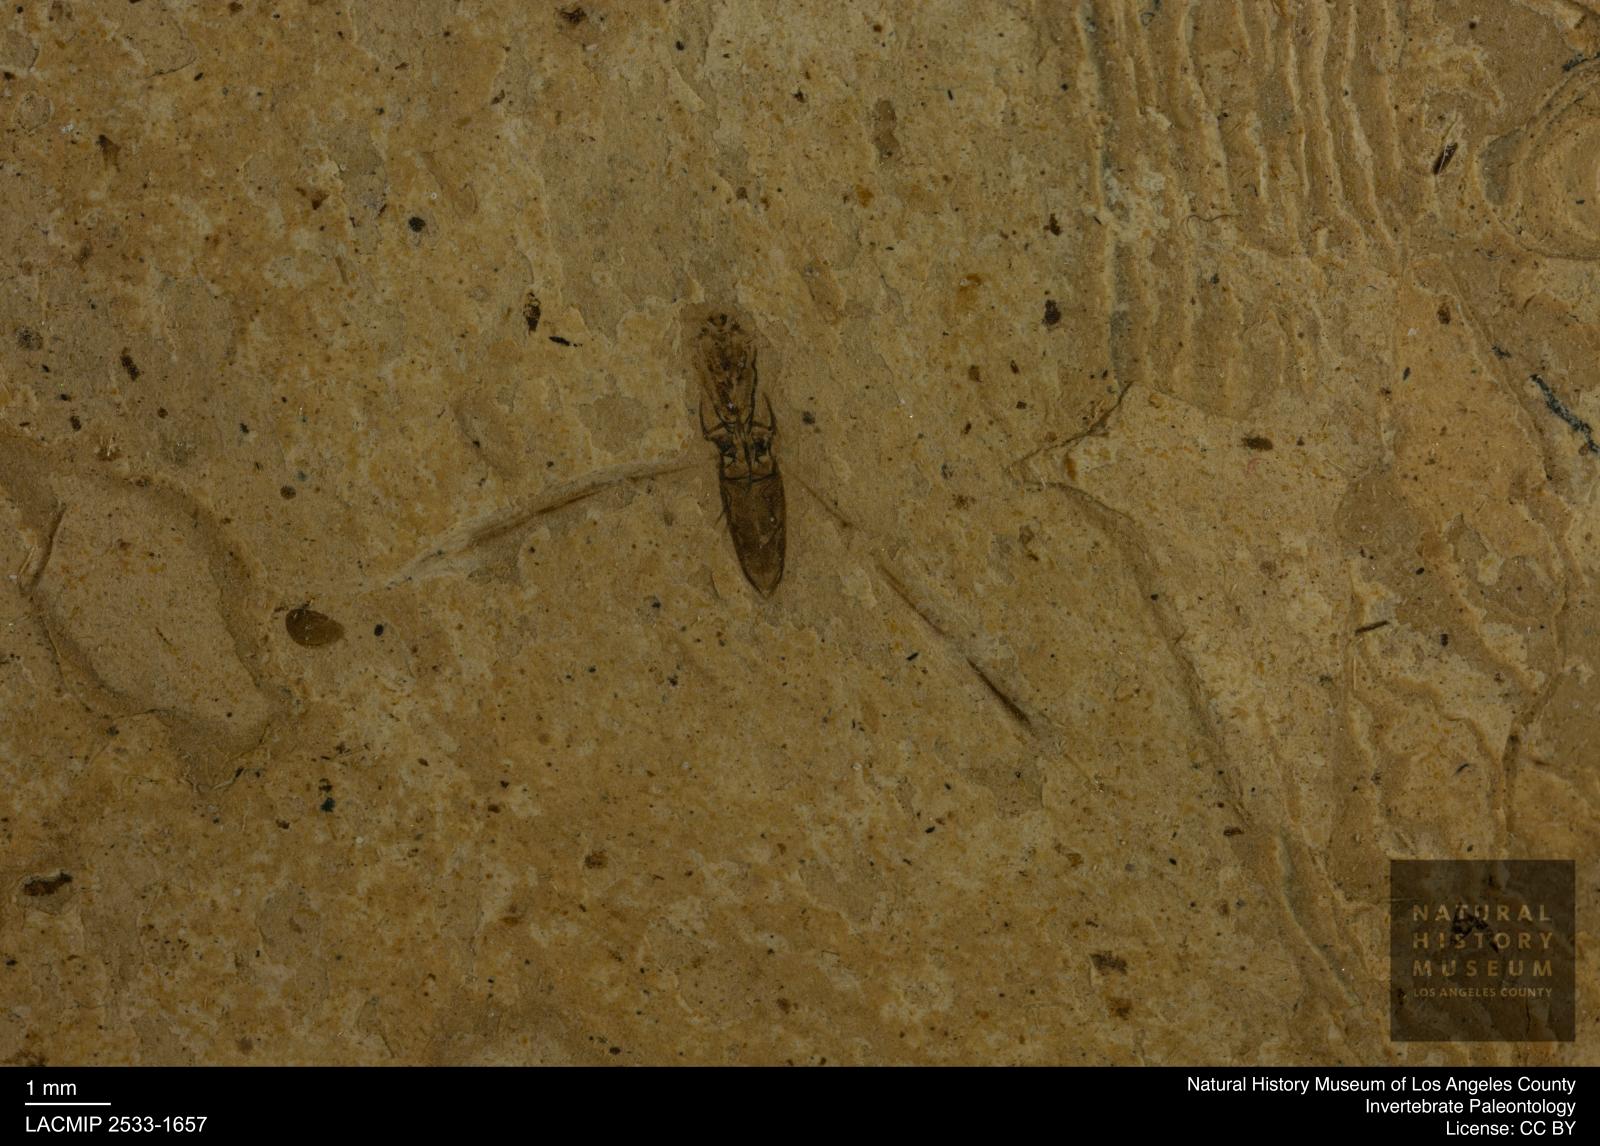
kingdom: Animalia
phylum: Arthropoda
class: Insecta
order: Hemiptera
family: Notonectidae
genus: Notonecta
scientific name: Notonecta
